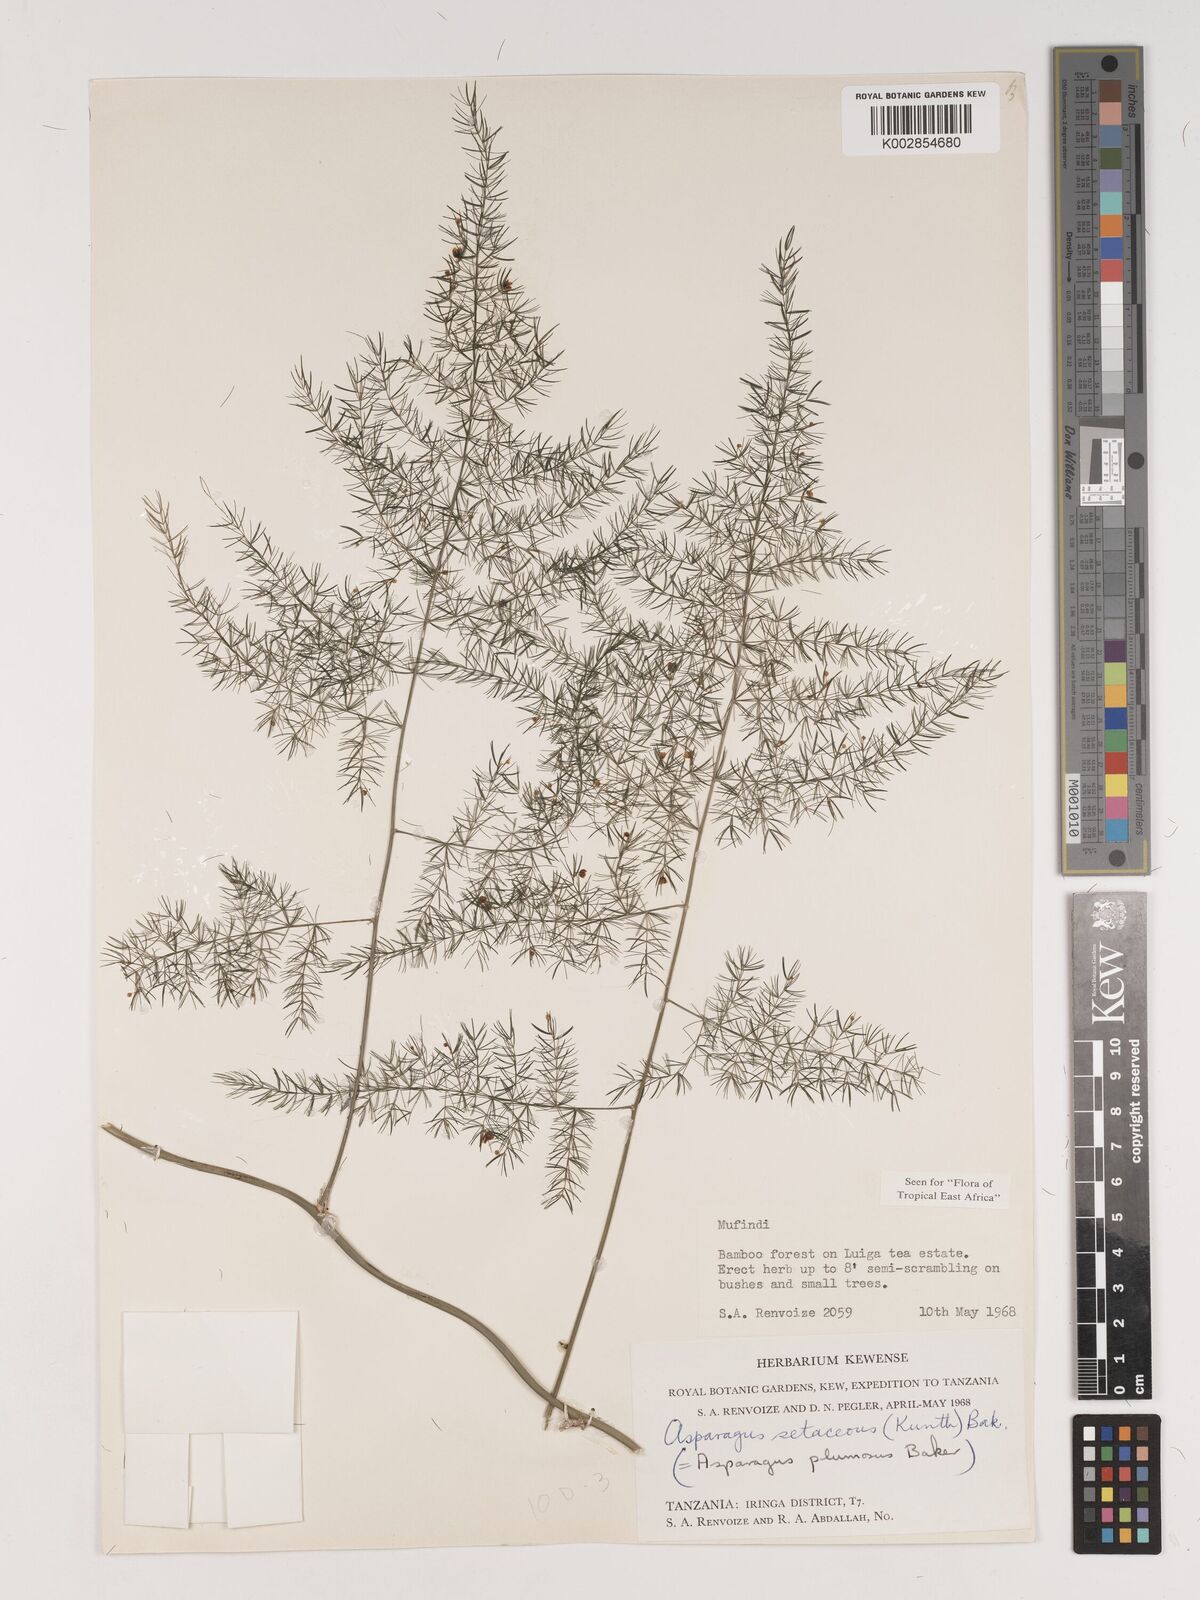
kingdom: Plantae
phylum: Tracheophyta
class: Liliopsida
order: Asparagales
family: Asparagaceae
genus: Asparagus
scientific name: Asparagus setaceus
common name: Common asparagus fern
